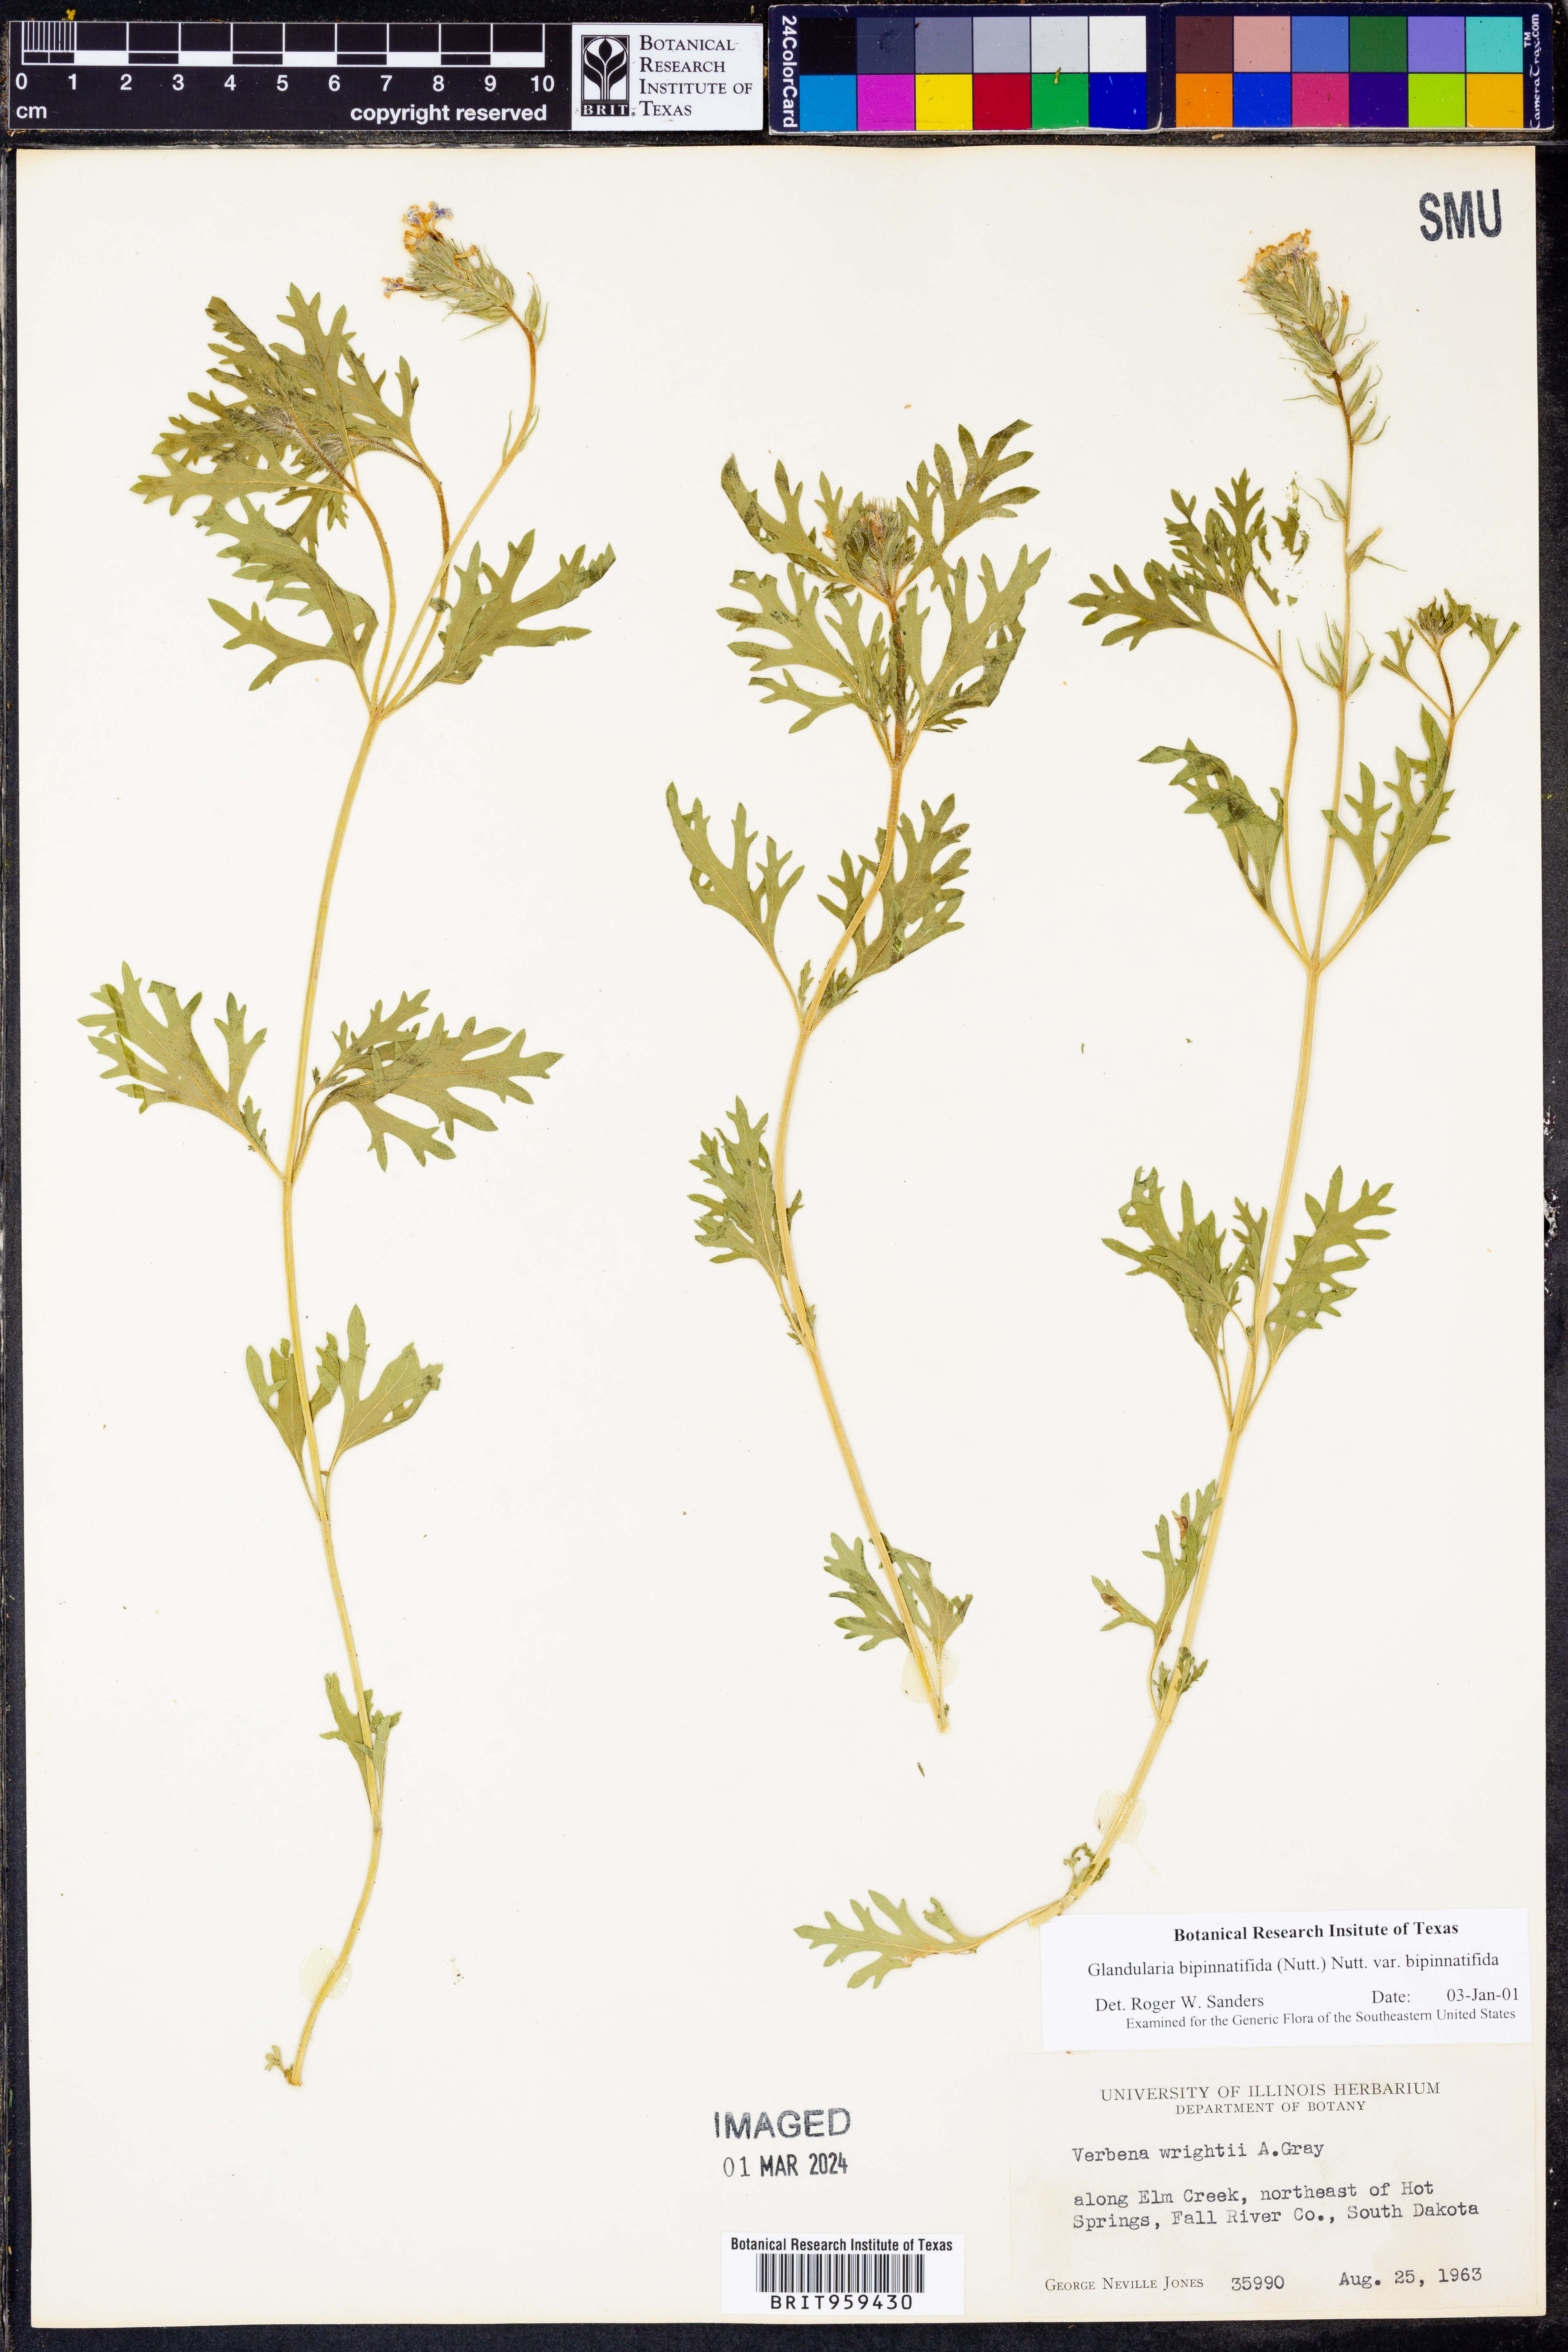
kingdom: Plantae
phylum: Tracheophyta
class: Magnoliopsida
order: Lamiales
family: Verbenaceae
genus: Verbena
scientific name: Verbena bipinnatifida
